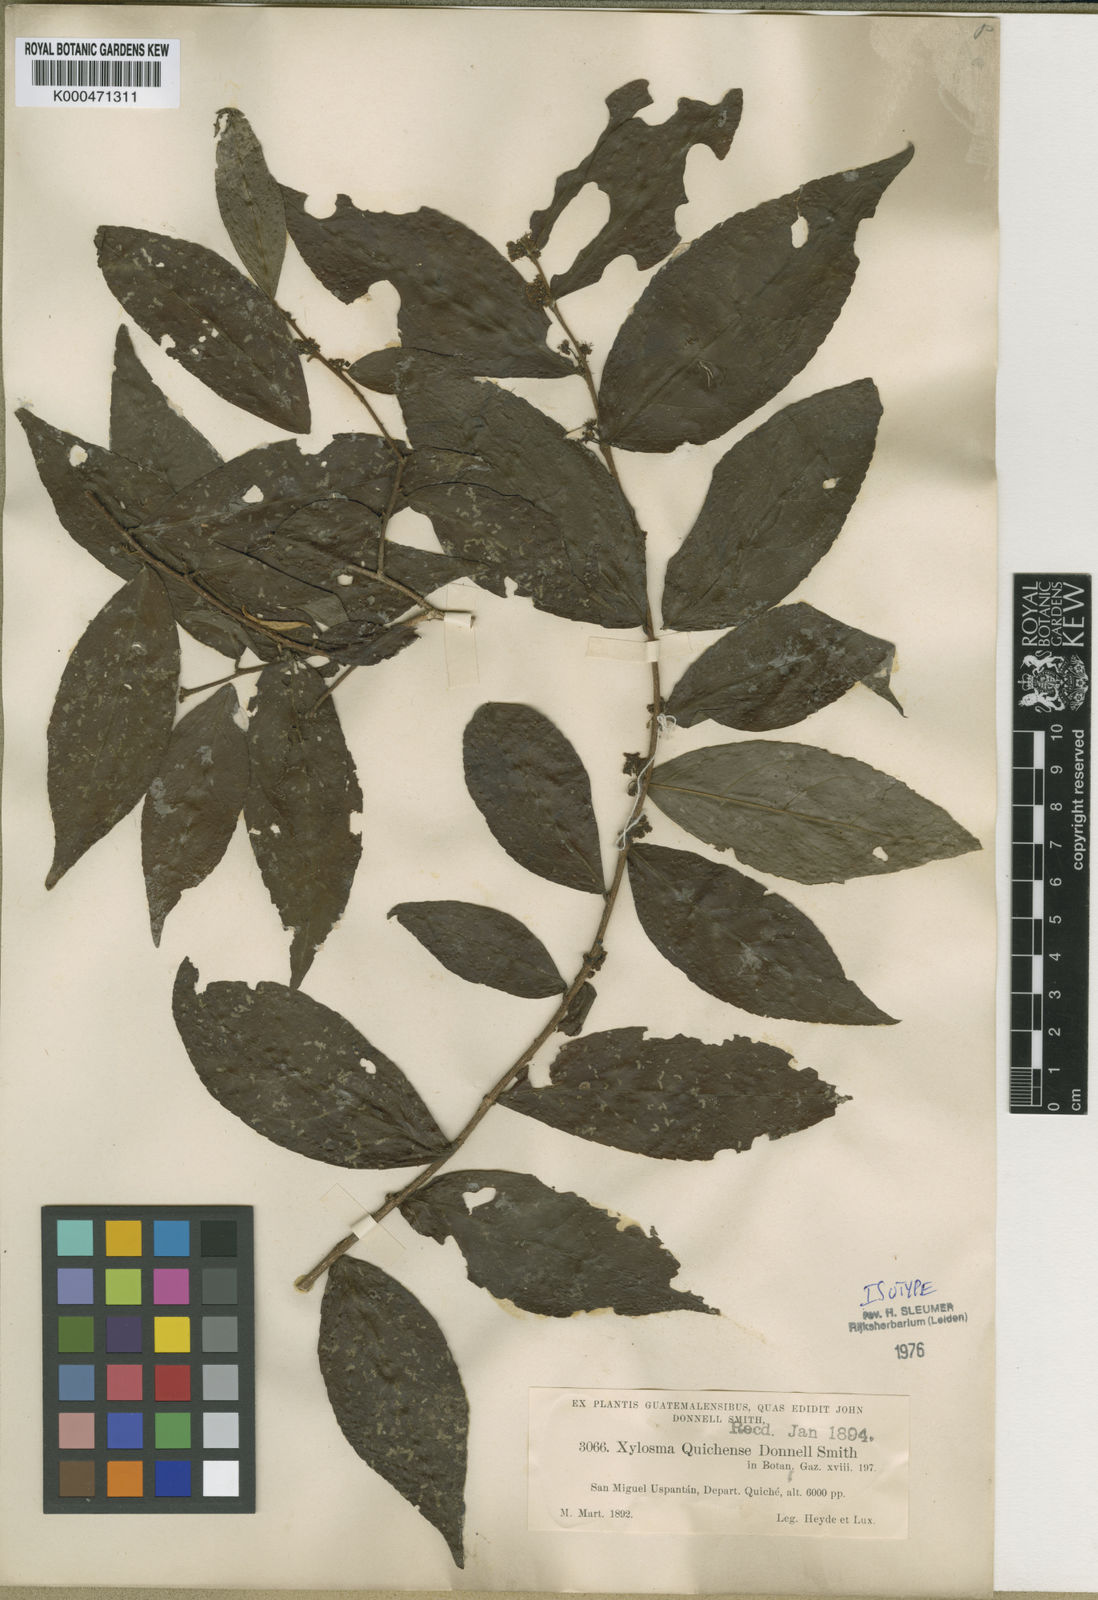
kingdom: Plantae
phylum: Tracheophyta
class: Magnoliopsida
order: Malpighiales
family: Salicaceae
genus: Xylosma
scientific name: Xylosma
